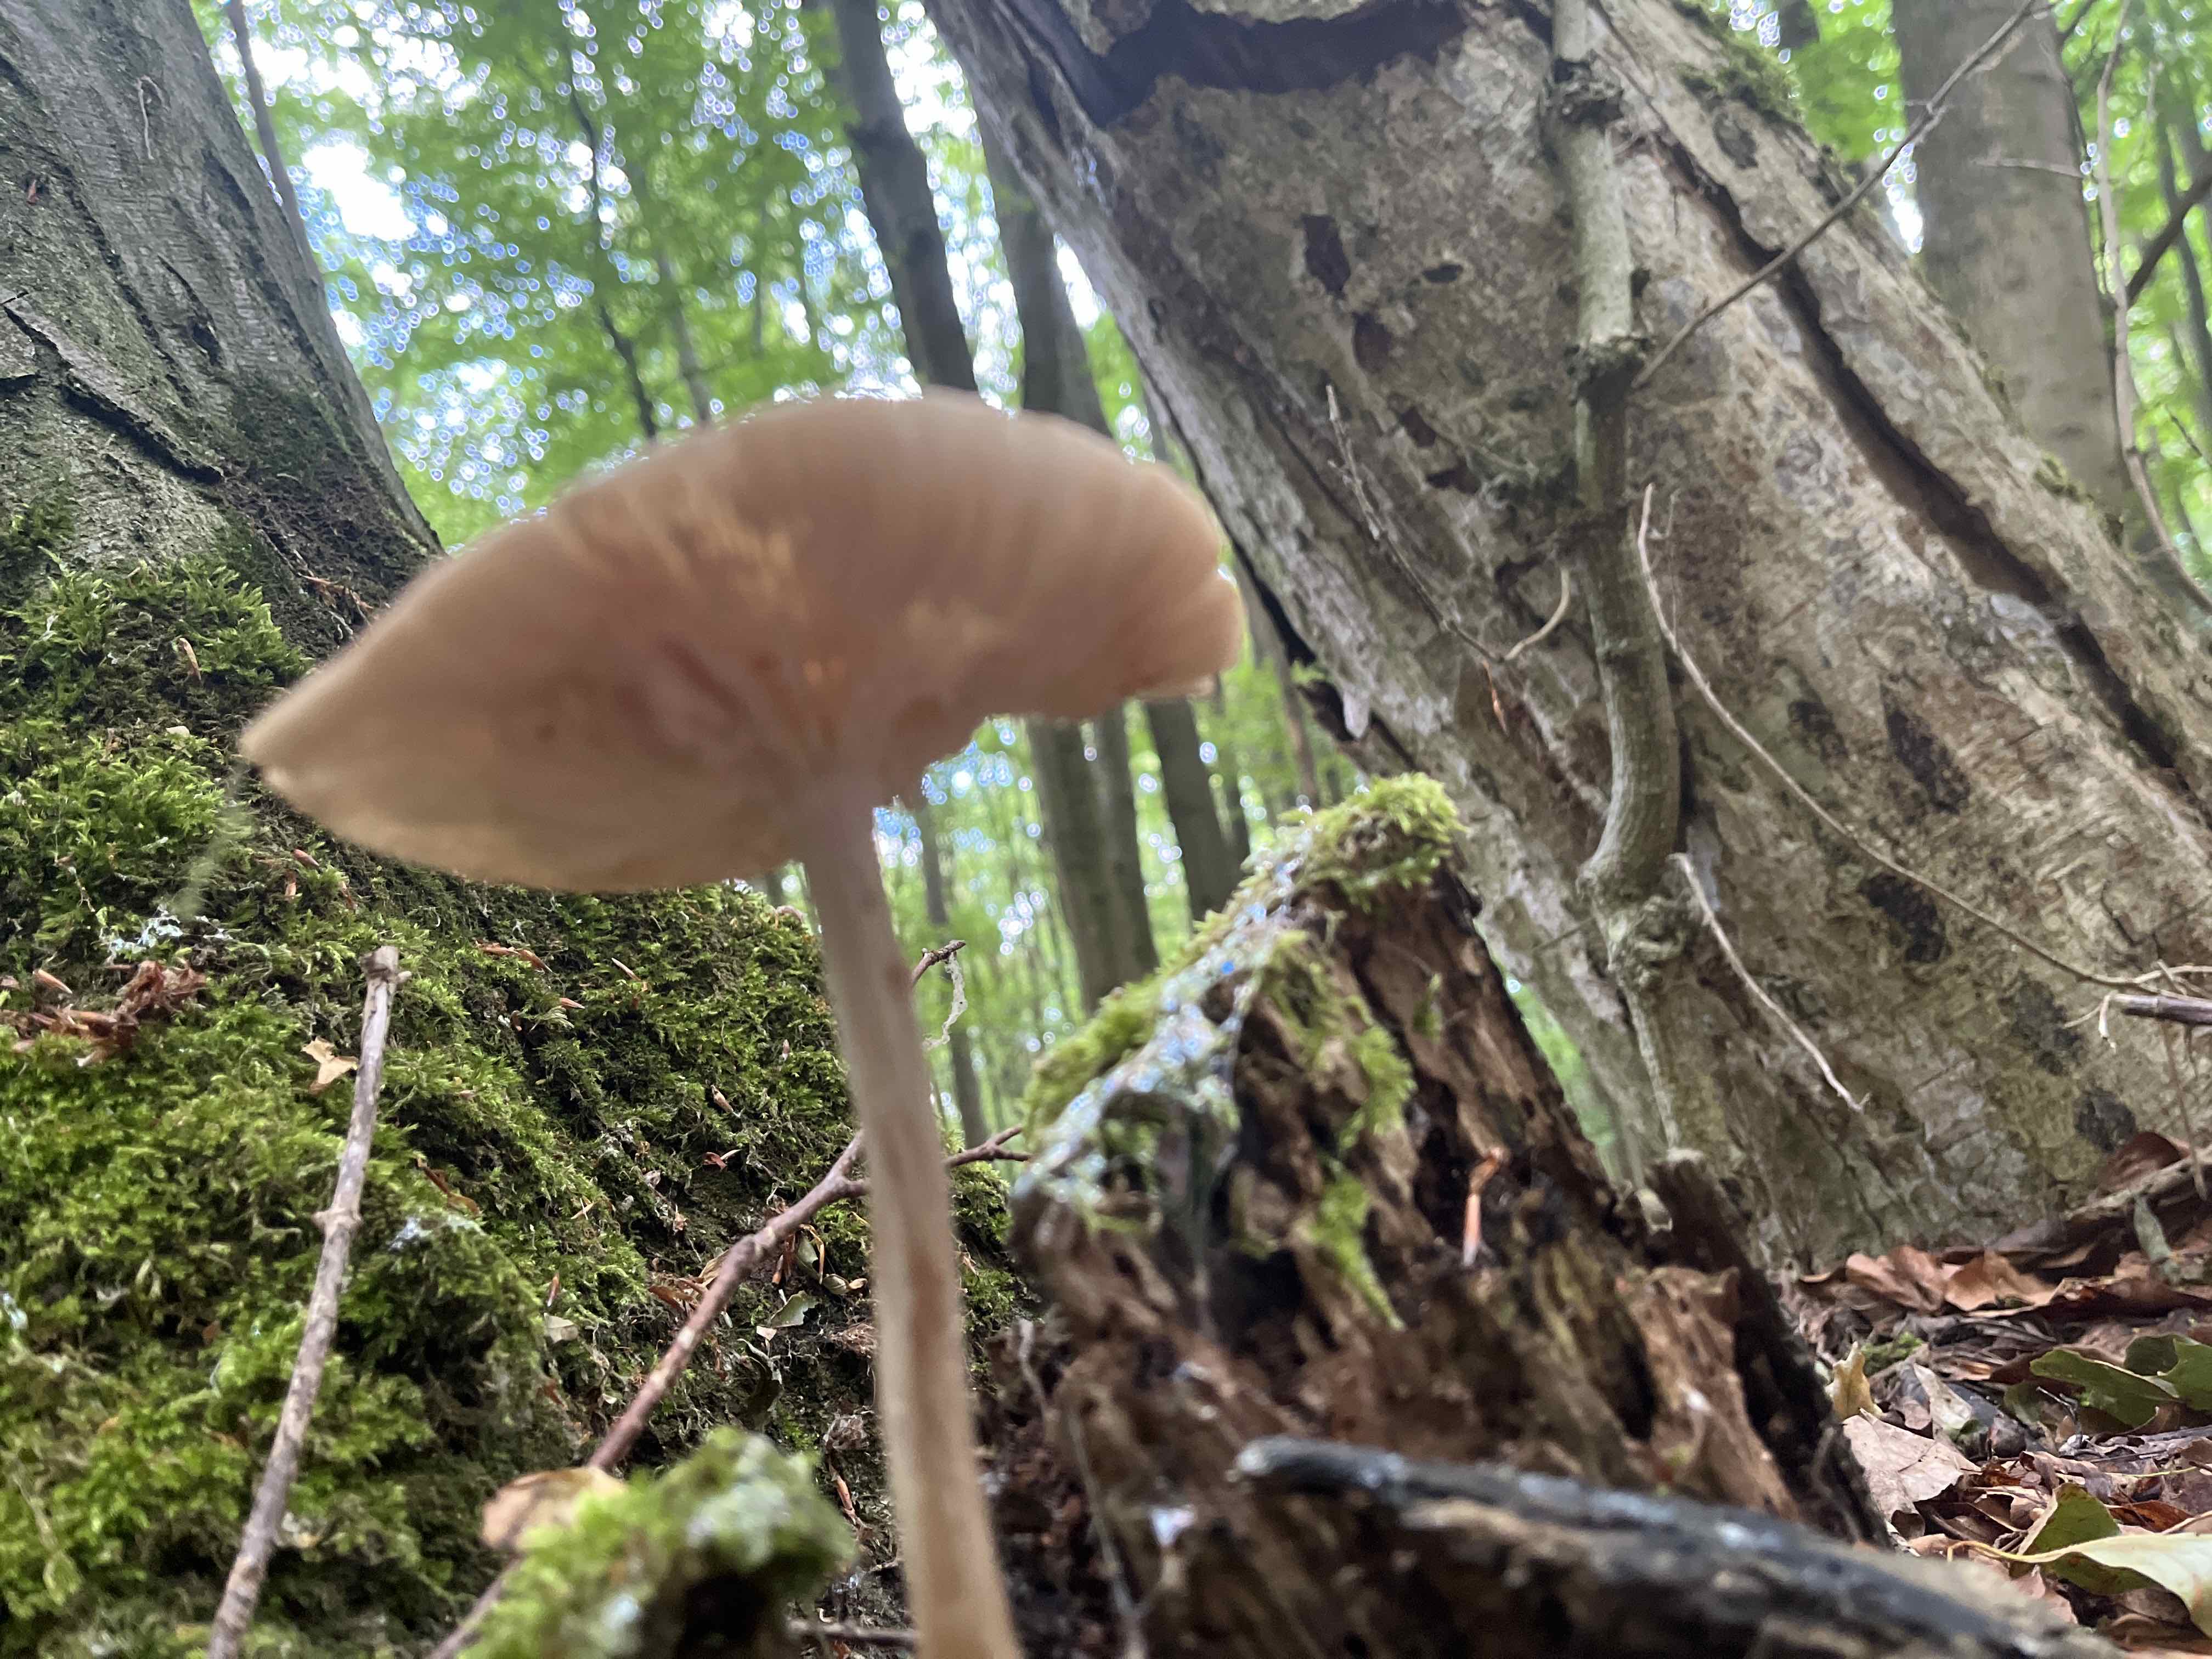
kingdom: Fungi
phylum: Basidiomycota
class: Agaricomycetes
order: Agaricales
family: Physalacriaceae
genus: Hymenopellis
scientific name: Hymenopellis radicata
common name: almindelig pælerodshat
